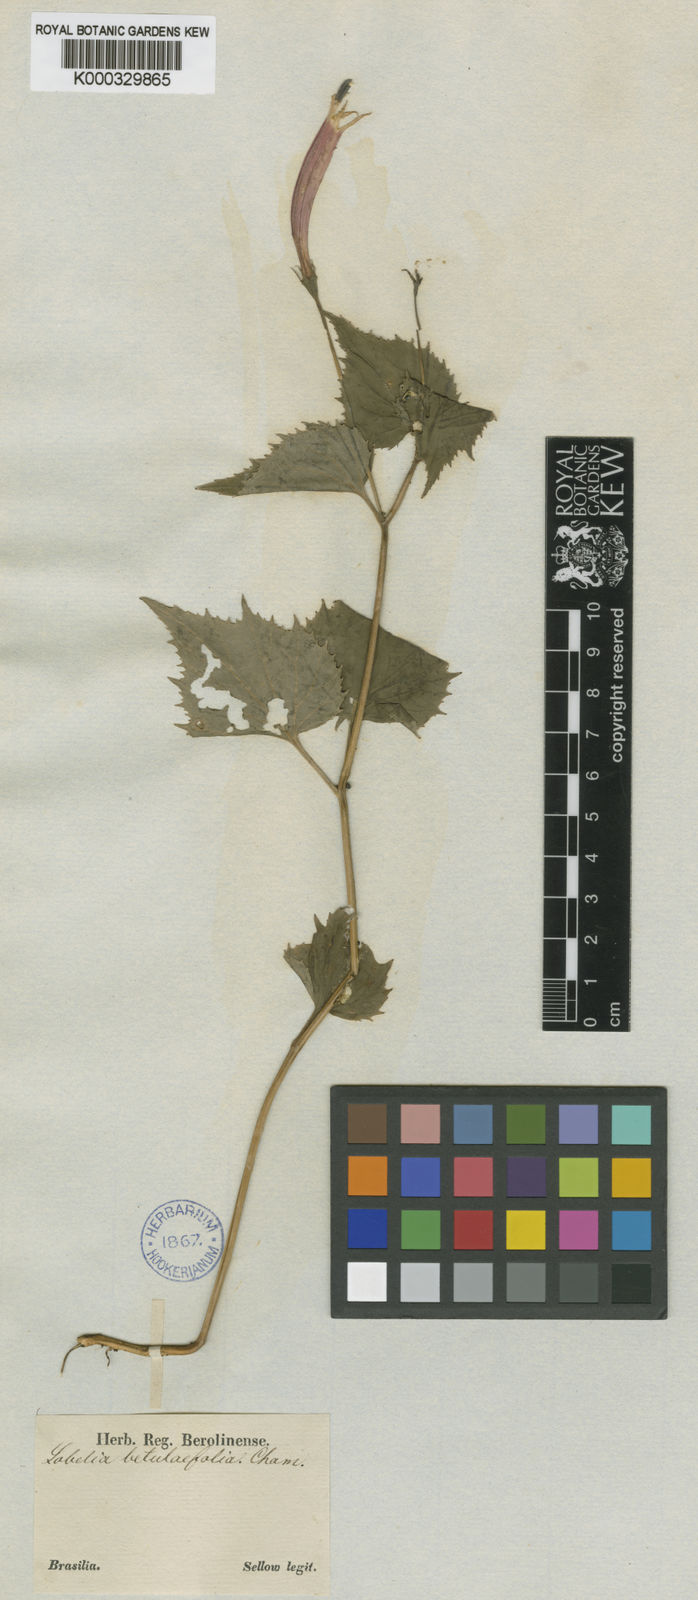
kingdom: Plantae
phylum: Tracheophyta
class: Magnoliopsida
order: Asterales
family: Campanulaceae
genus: Siphocampylus
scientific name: Siphocampylus betulifolius
